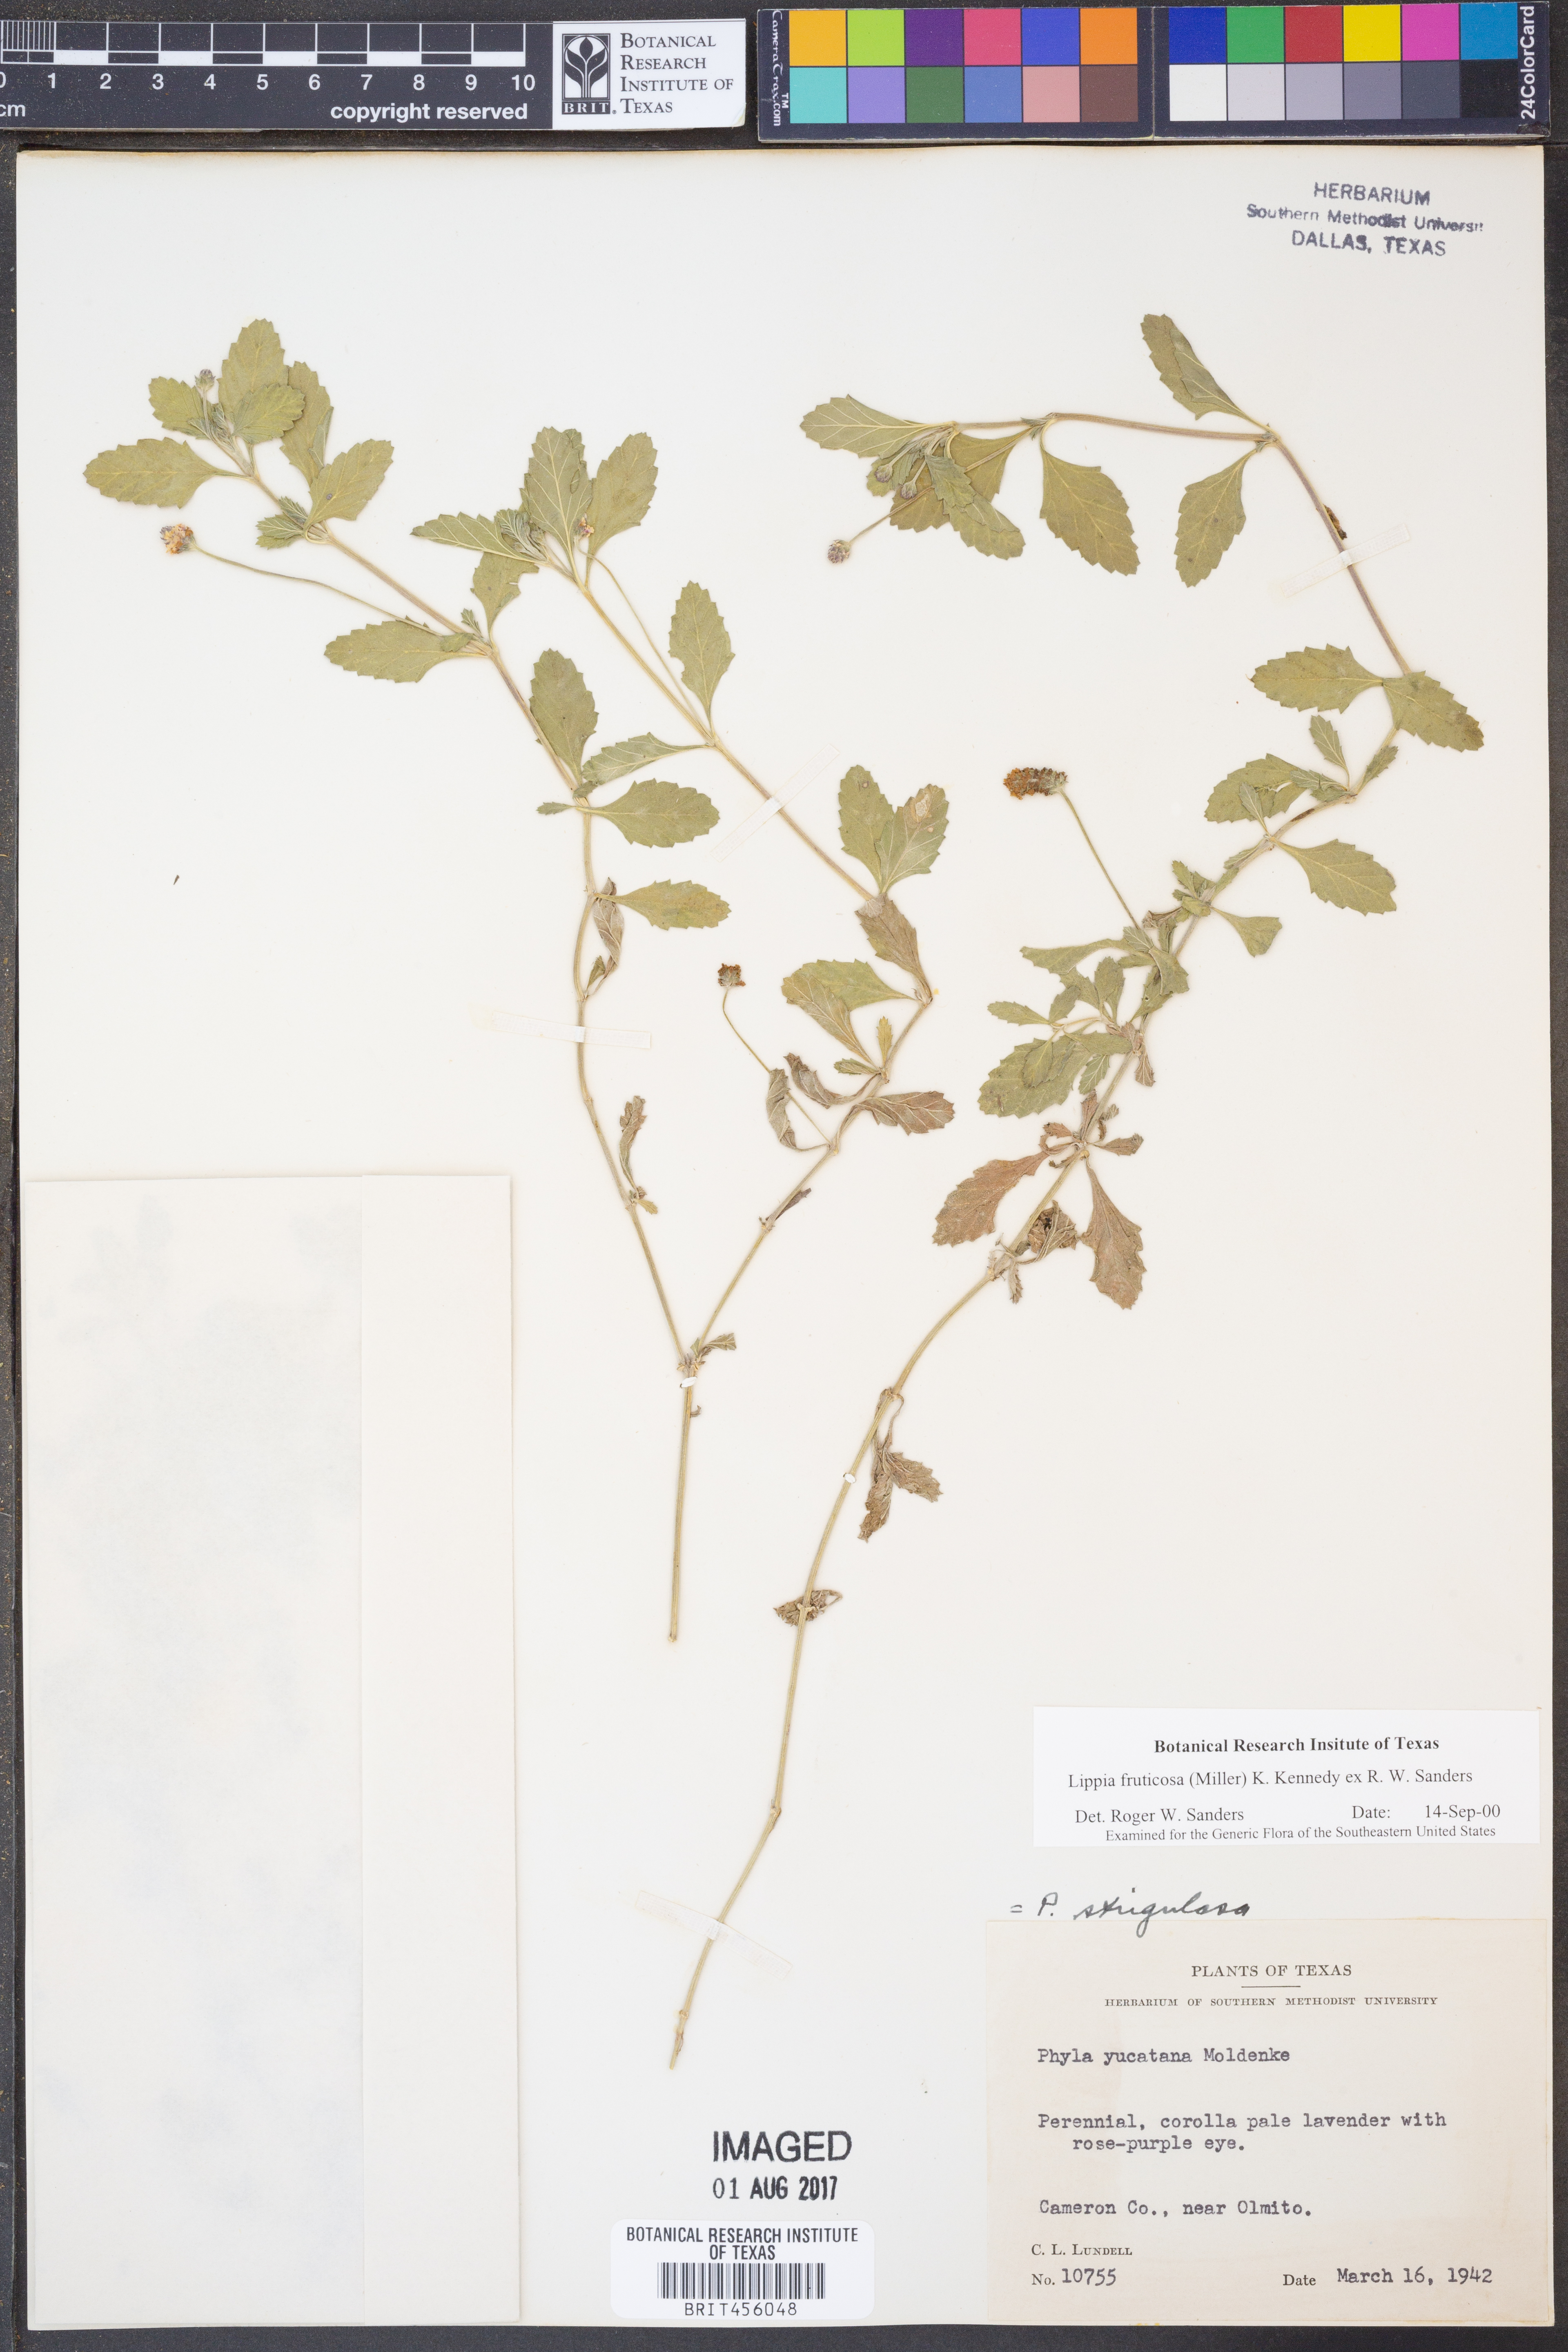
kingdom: Plantae
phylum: Tracheophyta
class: Magnoliopsida
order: Lamiales
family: Verbenaceae
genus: Phyla
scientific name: Phyla nodiflora
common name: Frogfruit
